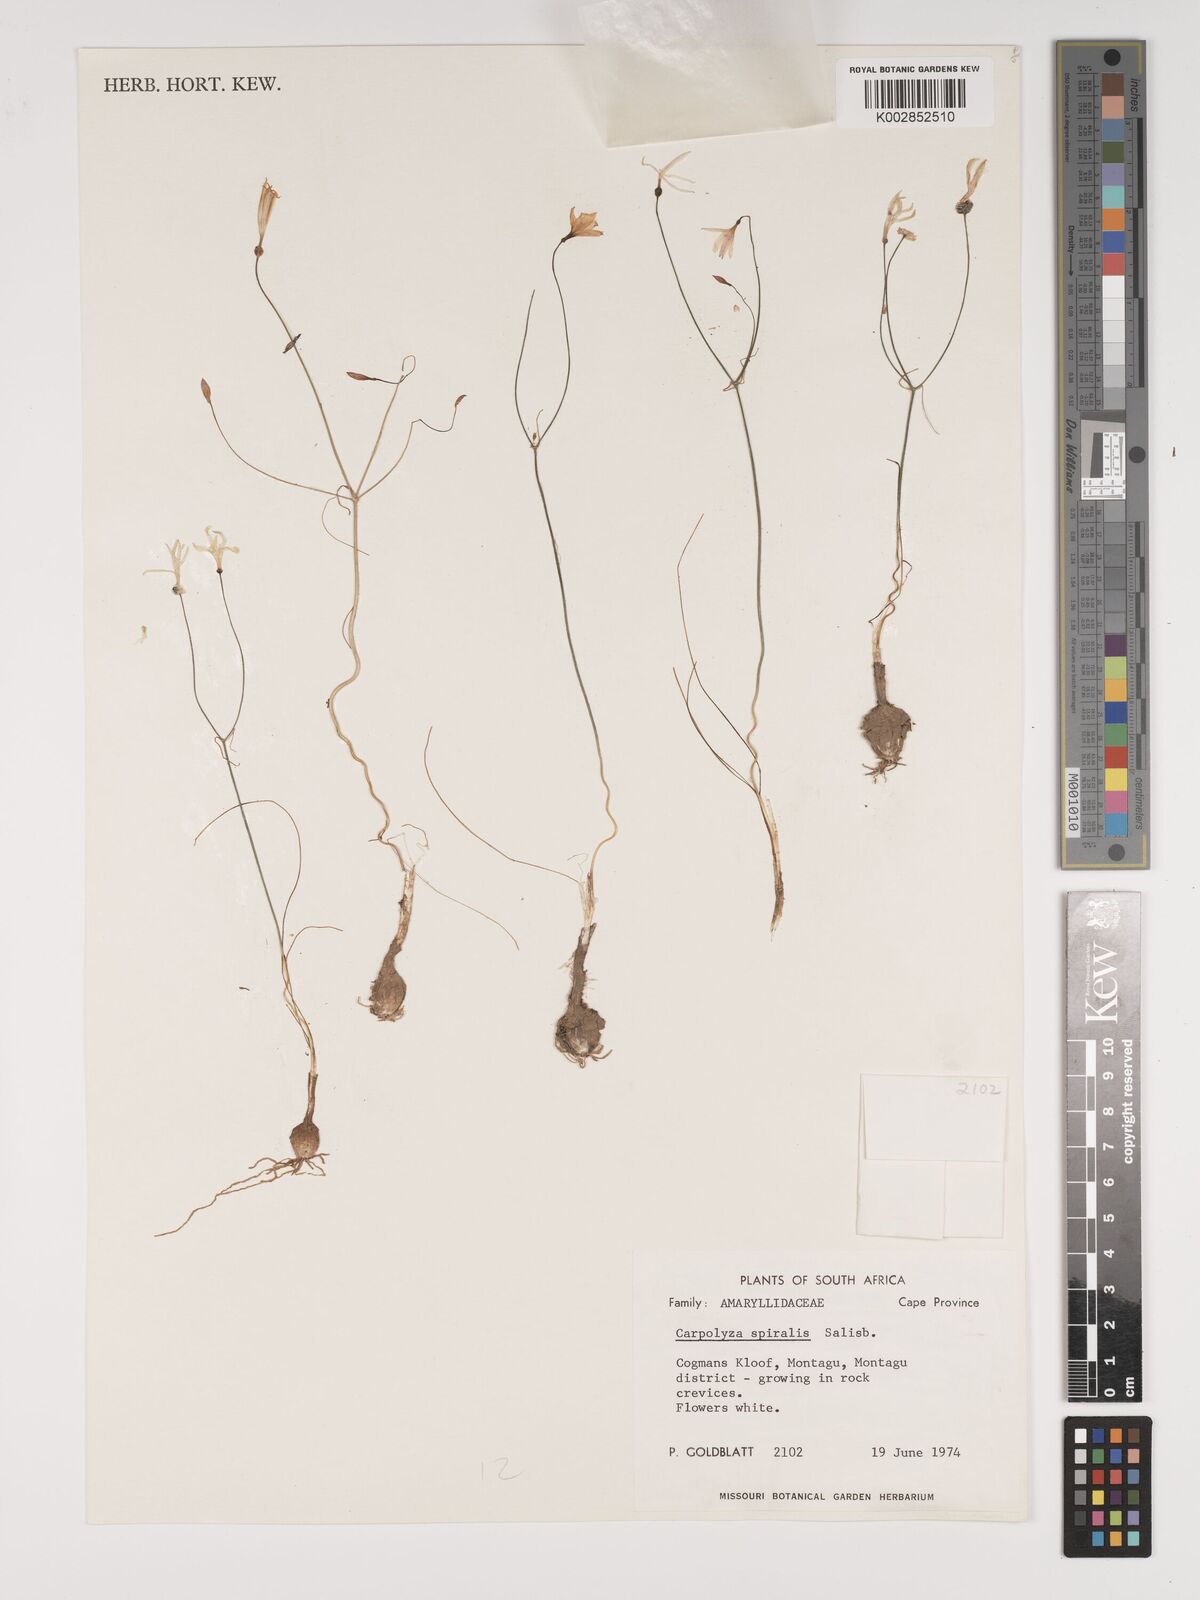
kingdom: Plantae
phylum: Tracheophyta
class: Liliopsida
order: Asparagales
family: Amaryllidaceae
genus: Strumaria
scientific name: Strumaria spiralis
